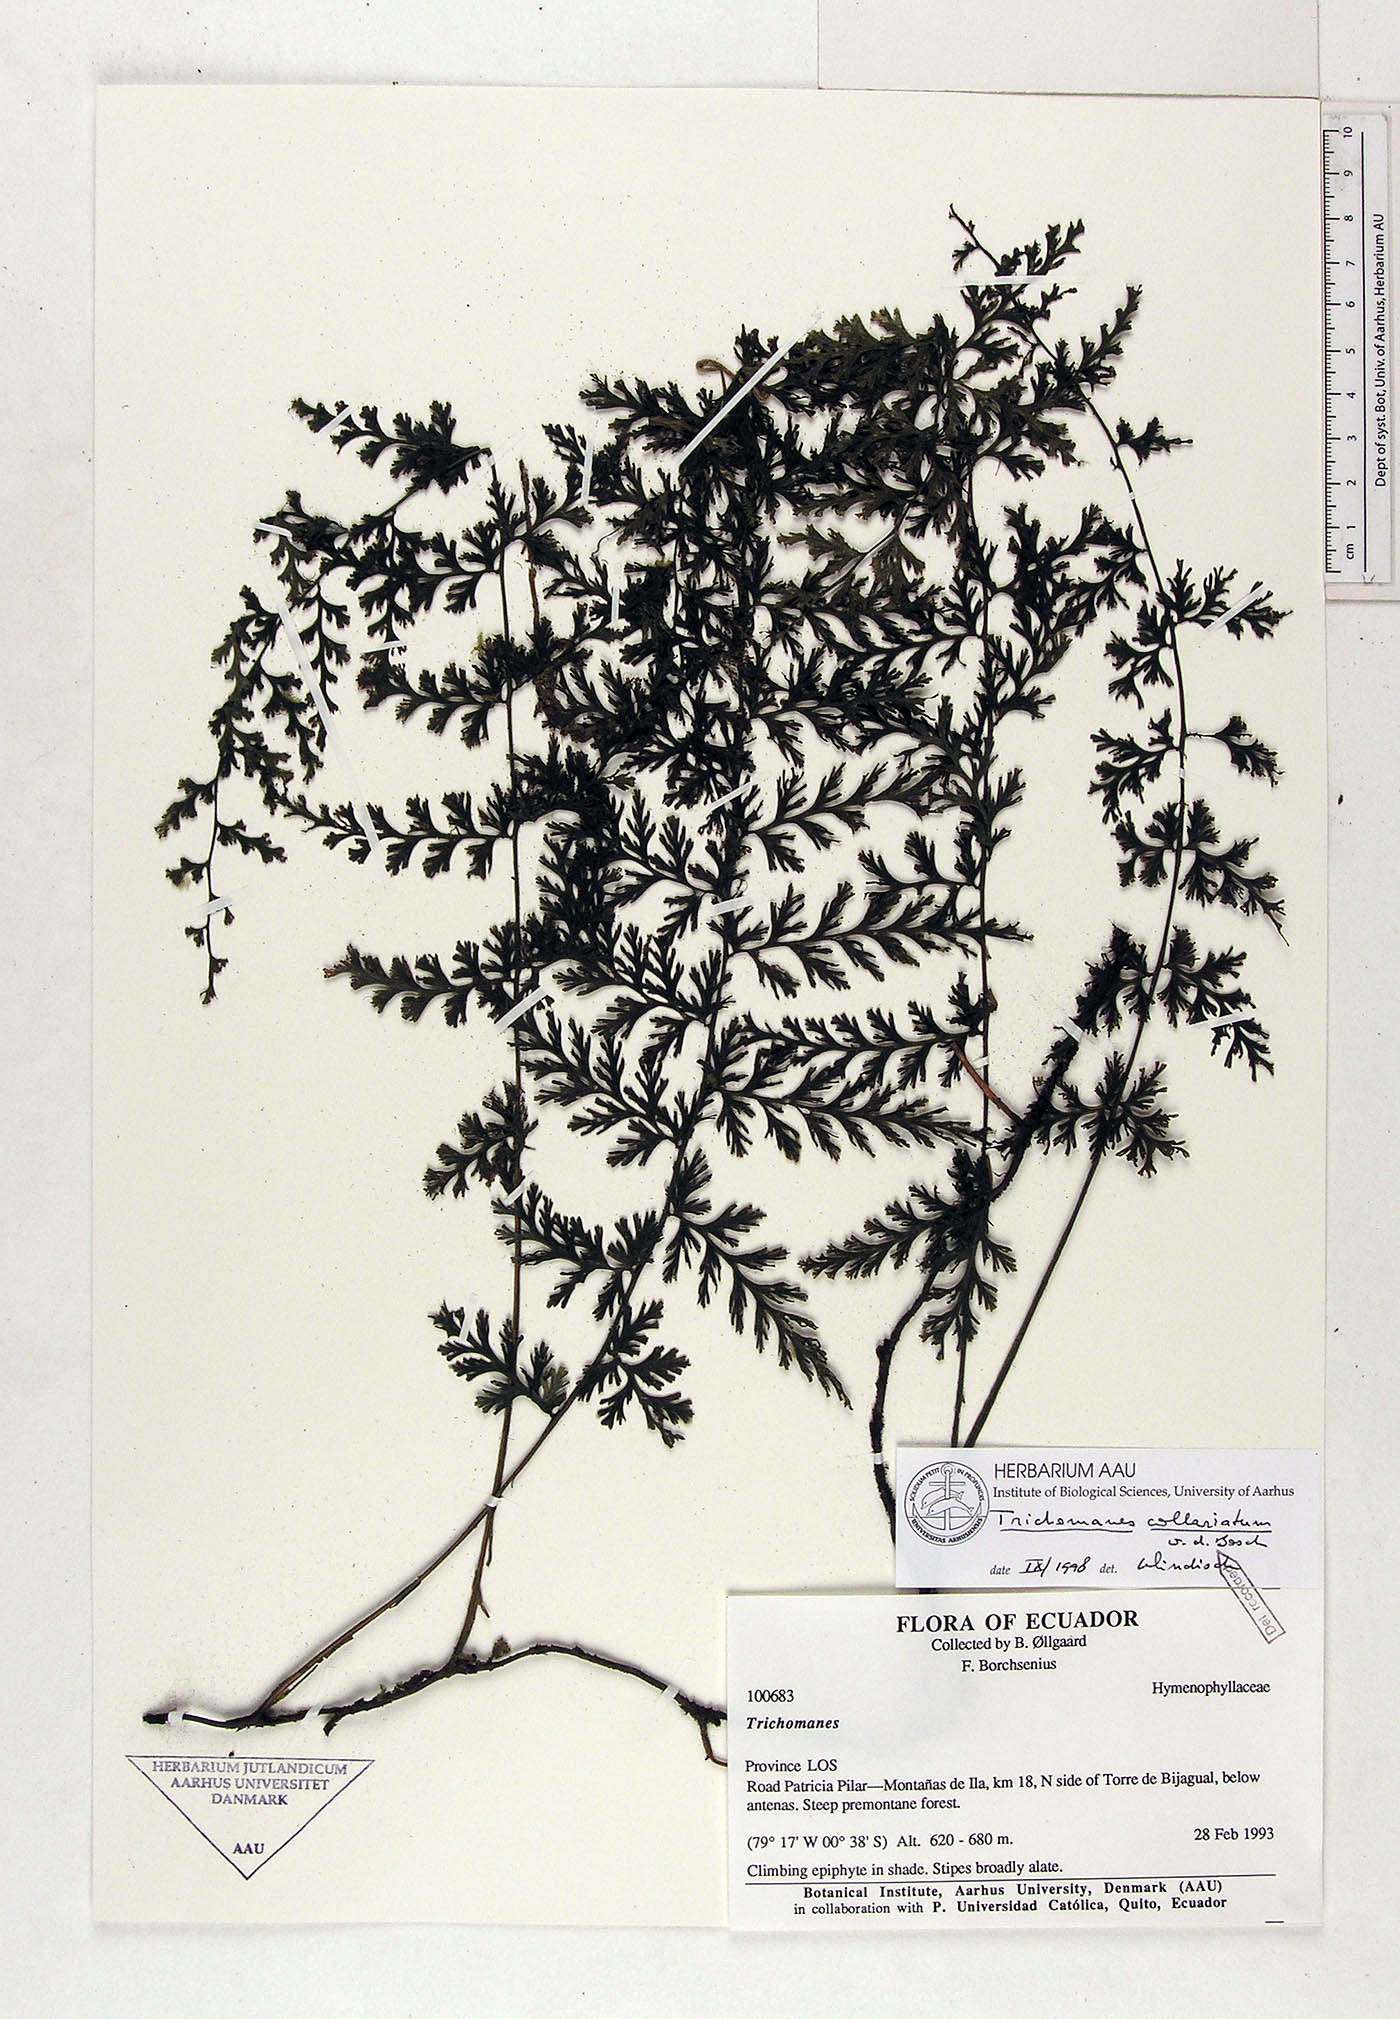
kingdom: Plantae
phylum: Tracheophyta
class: Polypodiopsida
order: Hymenophyllales
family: Hymenophyllaceae
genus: Vandenboschia
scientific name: Vandenboschia collariata
